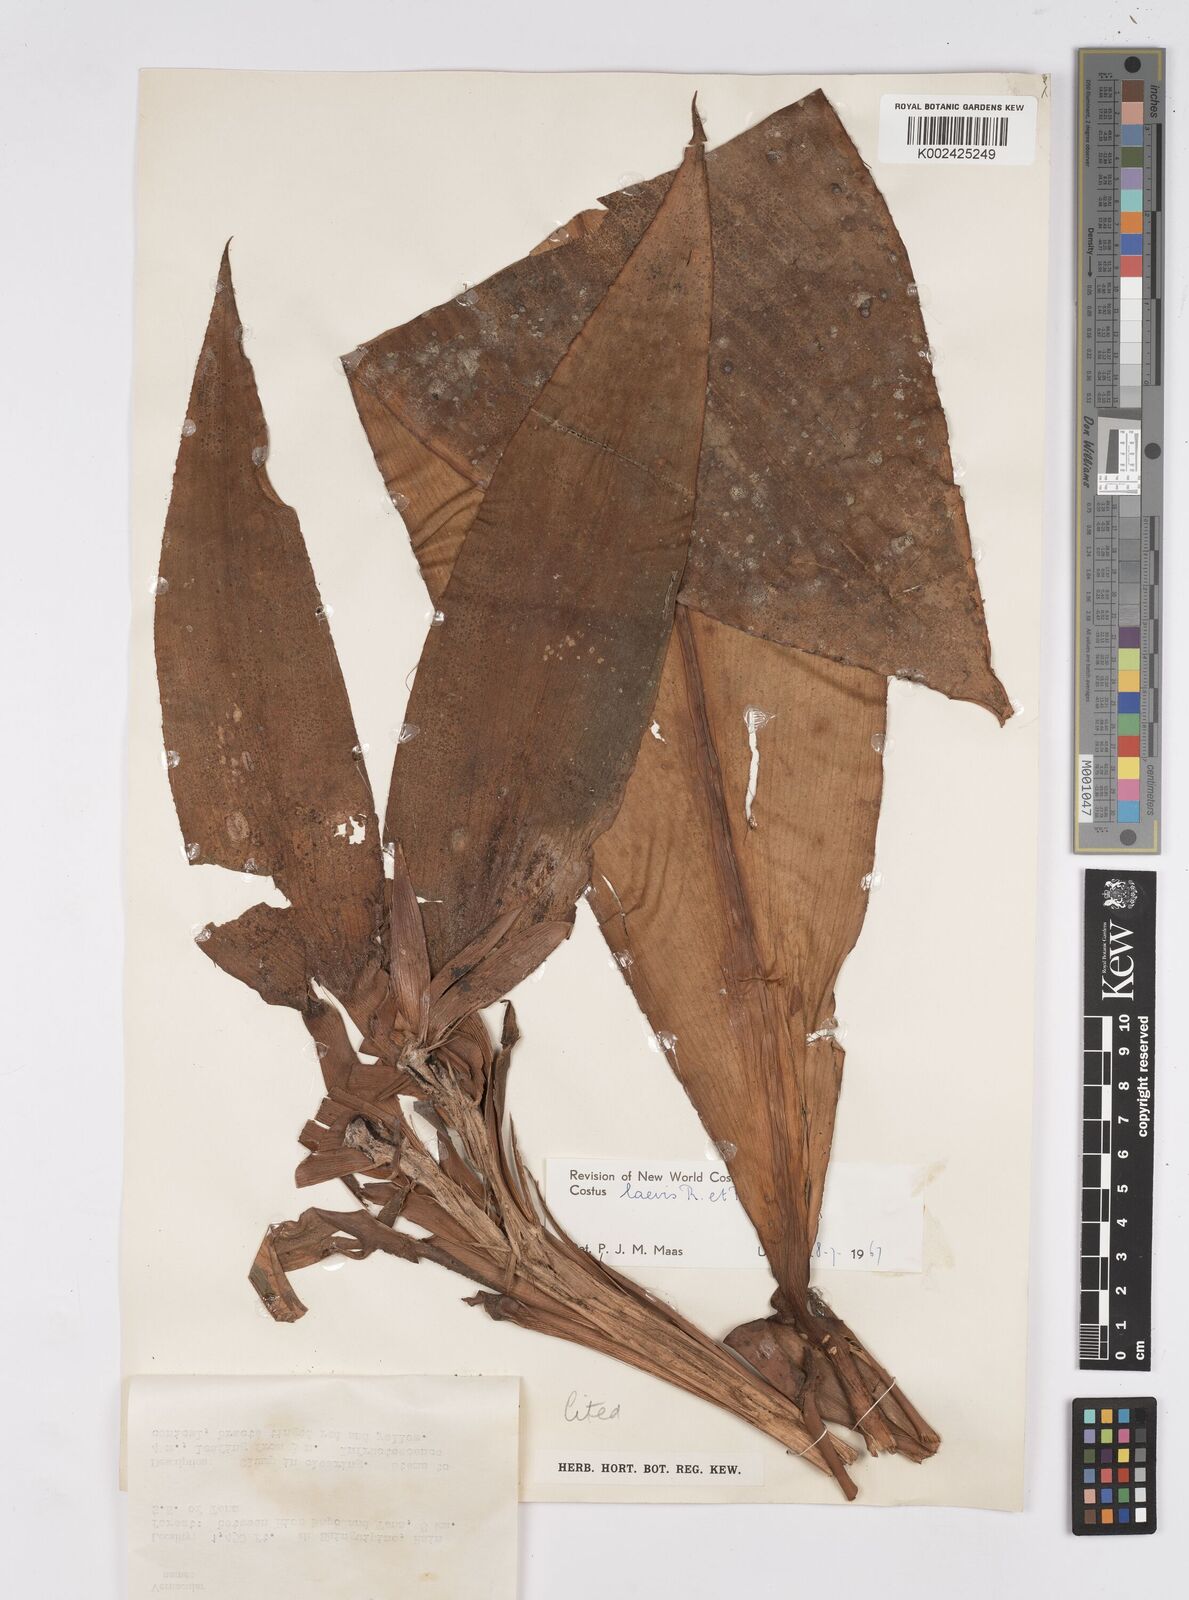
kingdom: Plantae
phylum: Tracheophyta
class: Liliopsida
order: Zingiberales
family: Costaceae
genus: Costus
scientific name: Costus laevis
